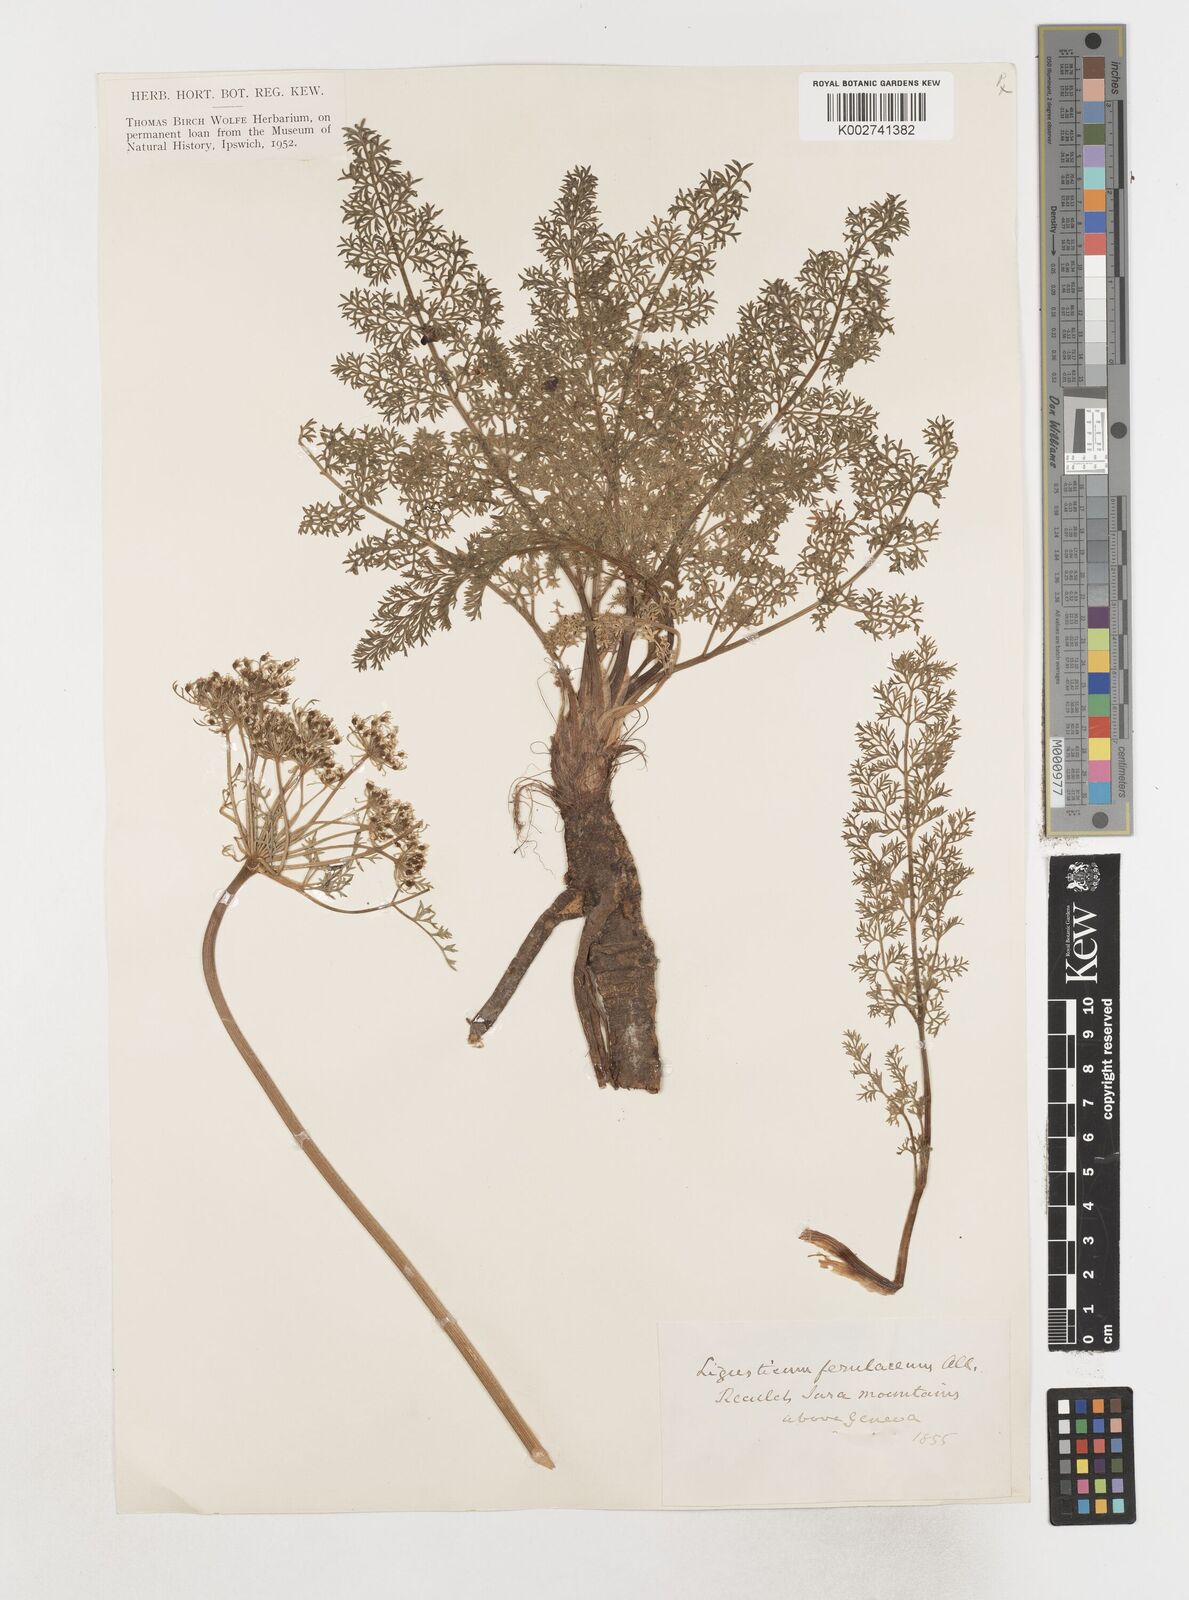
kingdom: Plantae
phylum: Tracheophyta
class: Magnoliopsida
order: Apiales
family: Apiaceae
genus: Coristospermum
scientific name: Coristospermum ferulaceum
